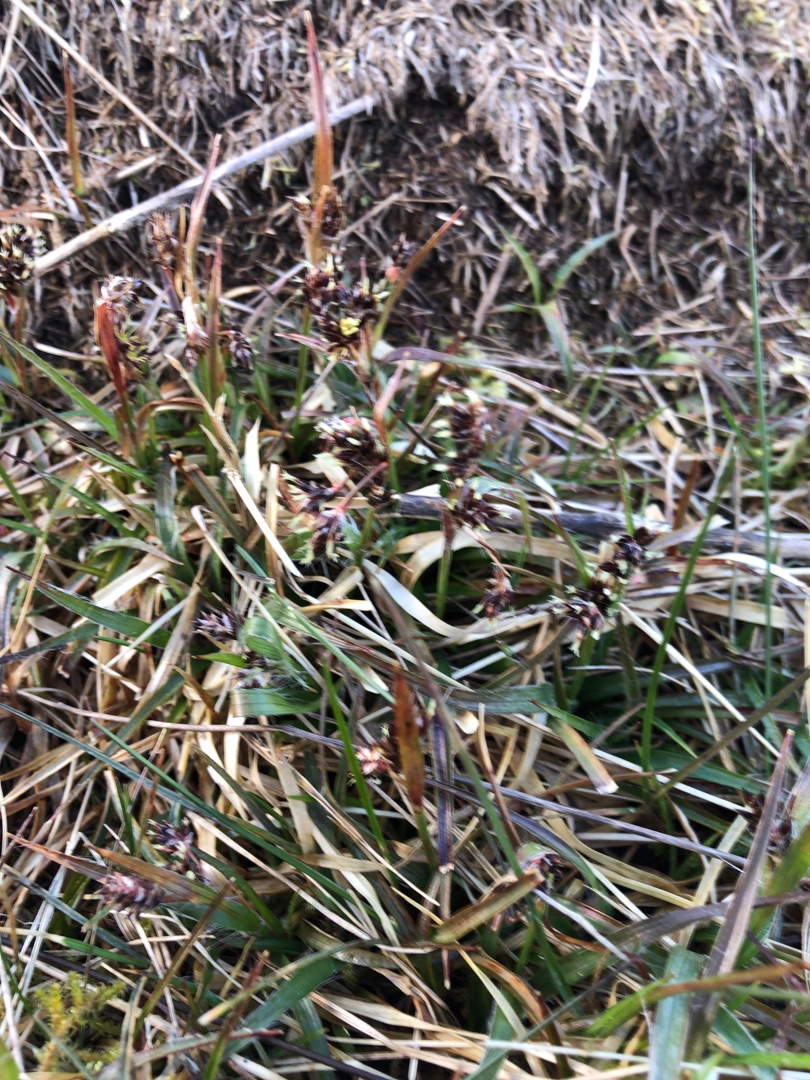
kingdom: Plantae
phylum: Tracheophyta
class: Liliopsida
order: Poales
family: Juncaceae
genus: Luzula
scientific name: Luzula campestris
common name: Mark-frytle
